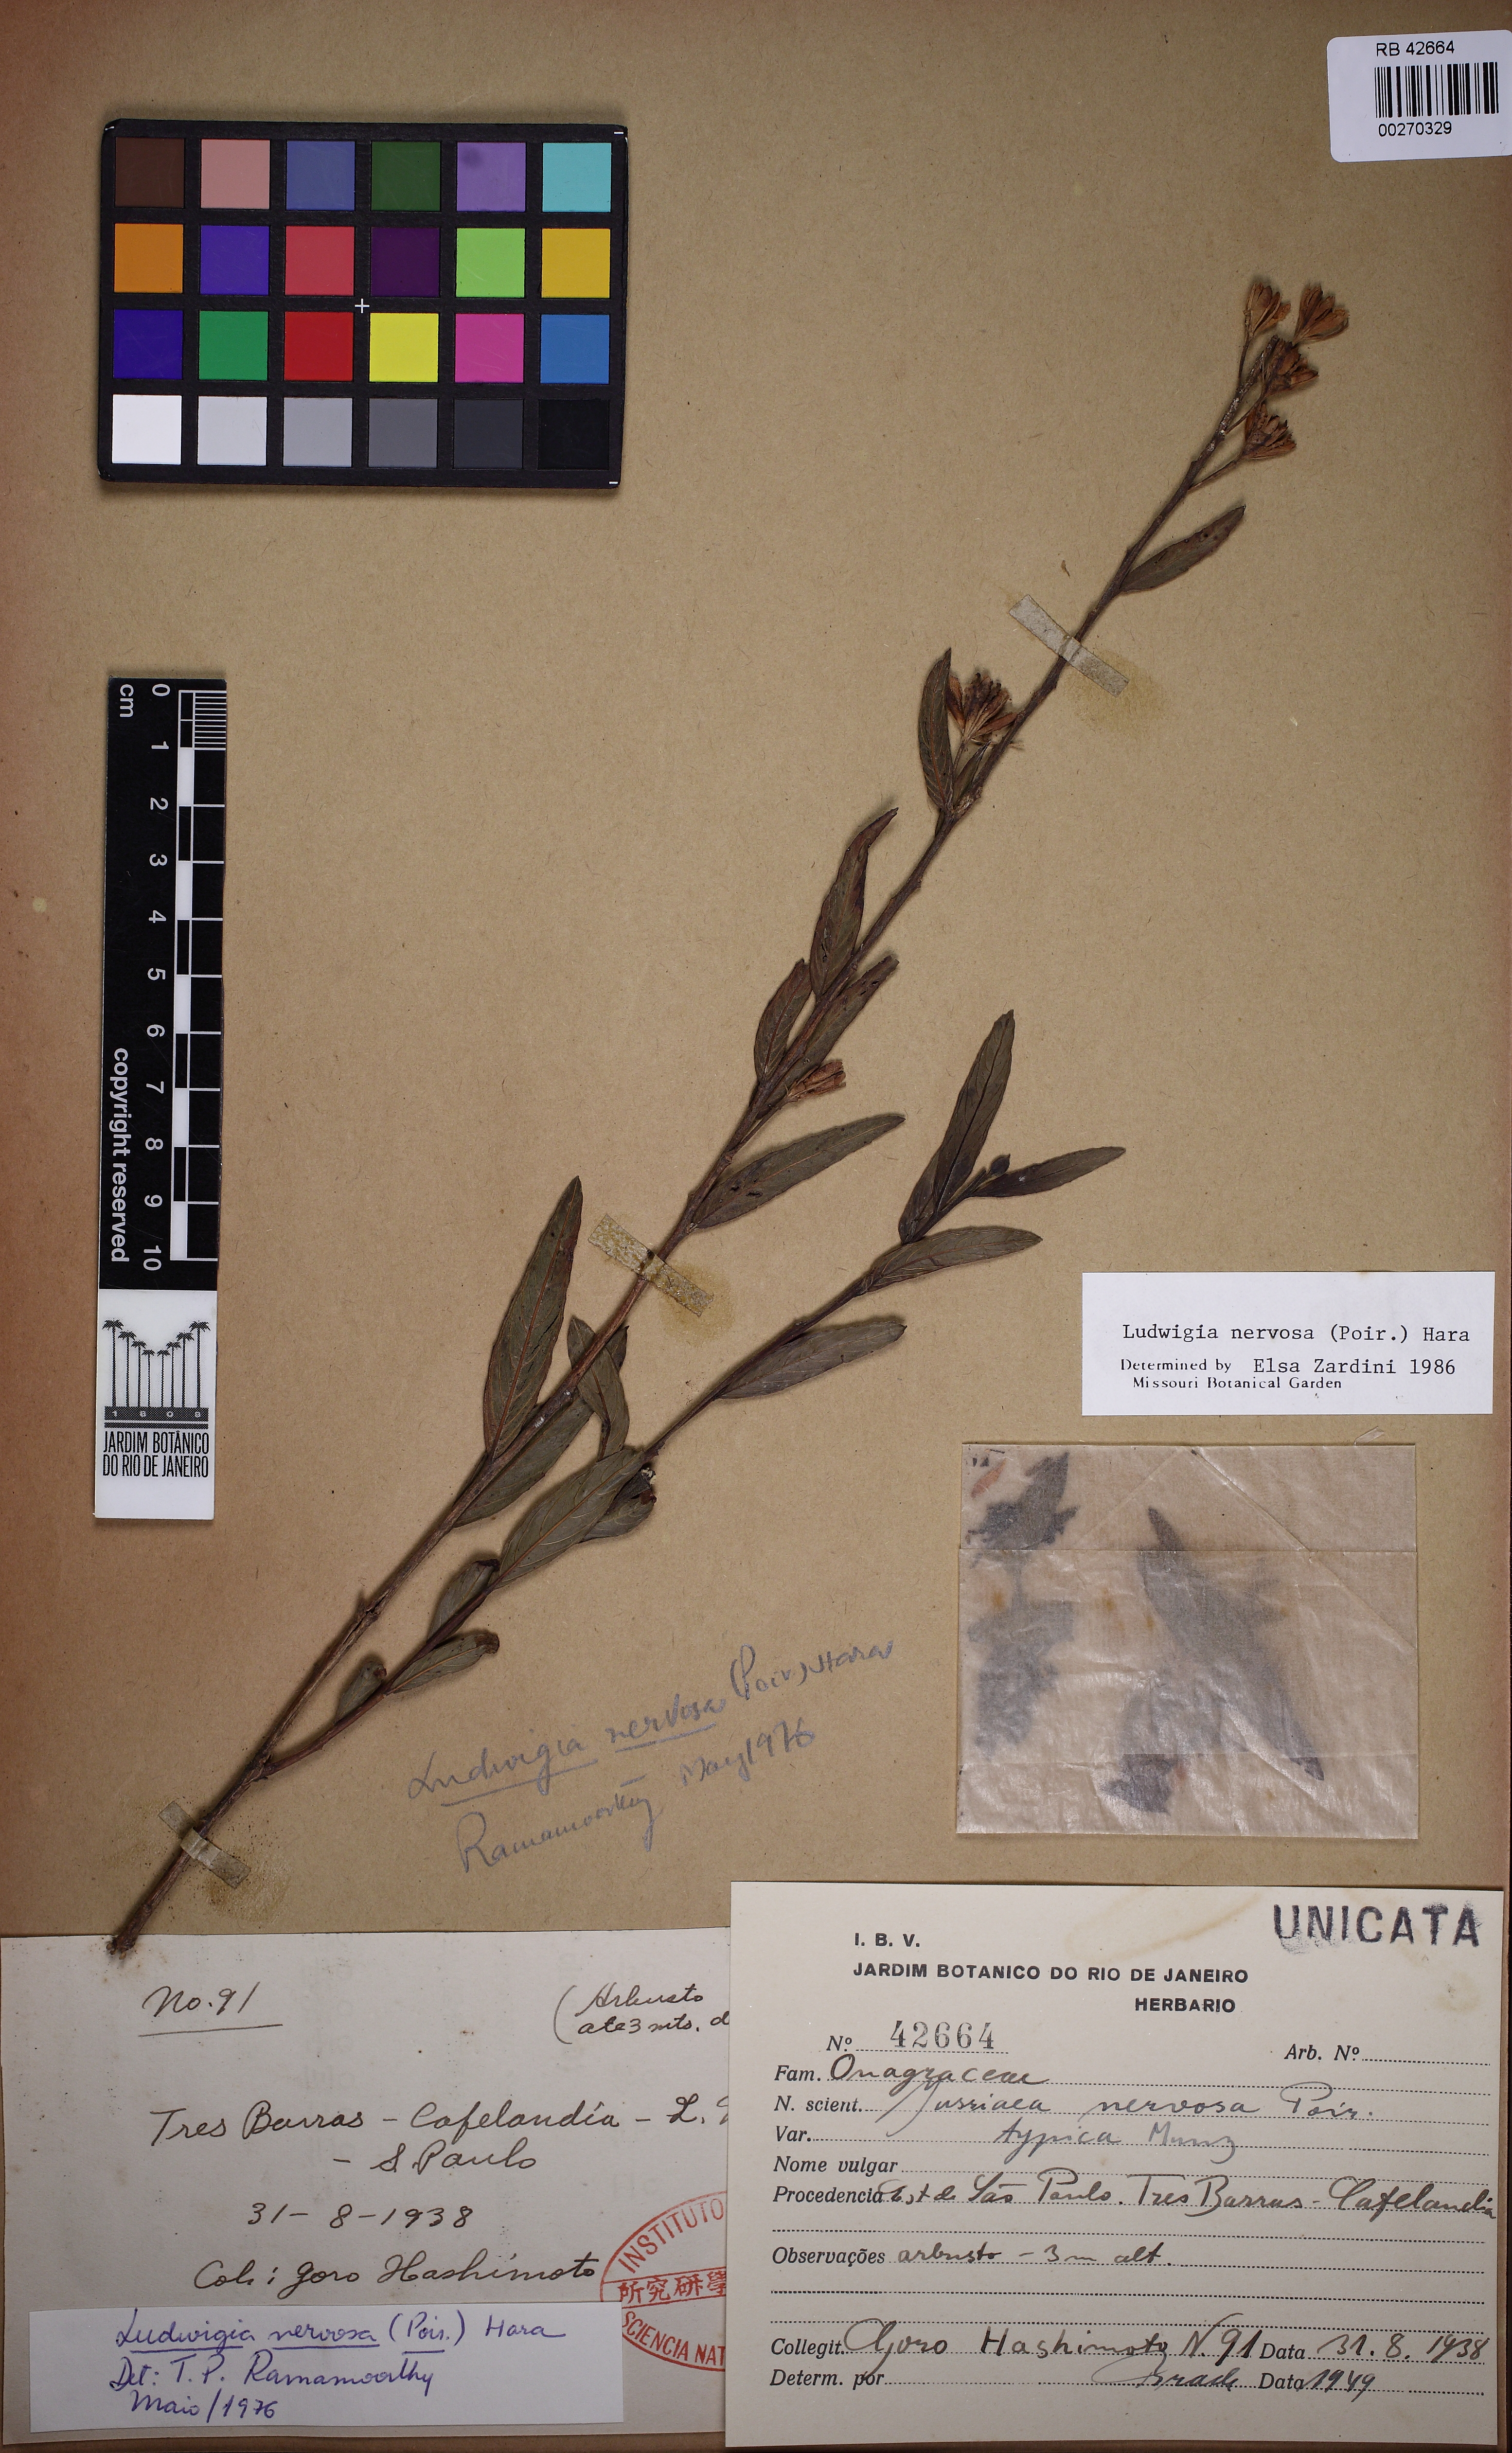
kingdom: Plantae
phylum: Tracheophyta
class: Magnoliopsida
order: Myrtales
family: Onagraceae
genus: Ludwigia
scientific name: Ludwigia nervosa
